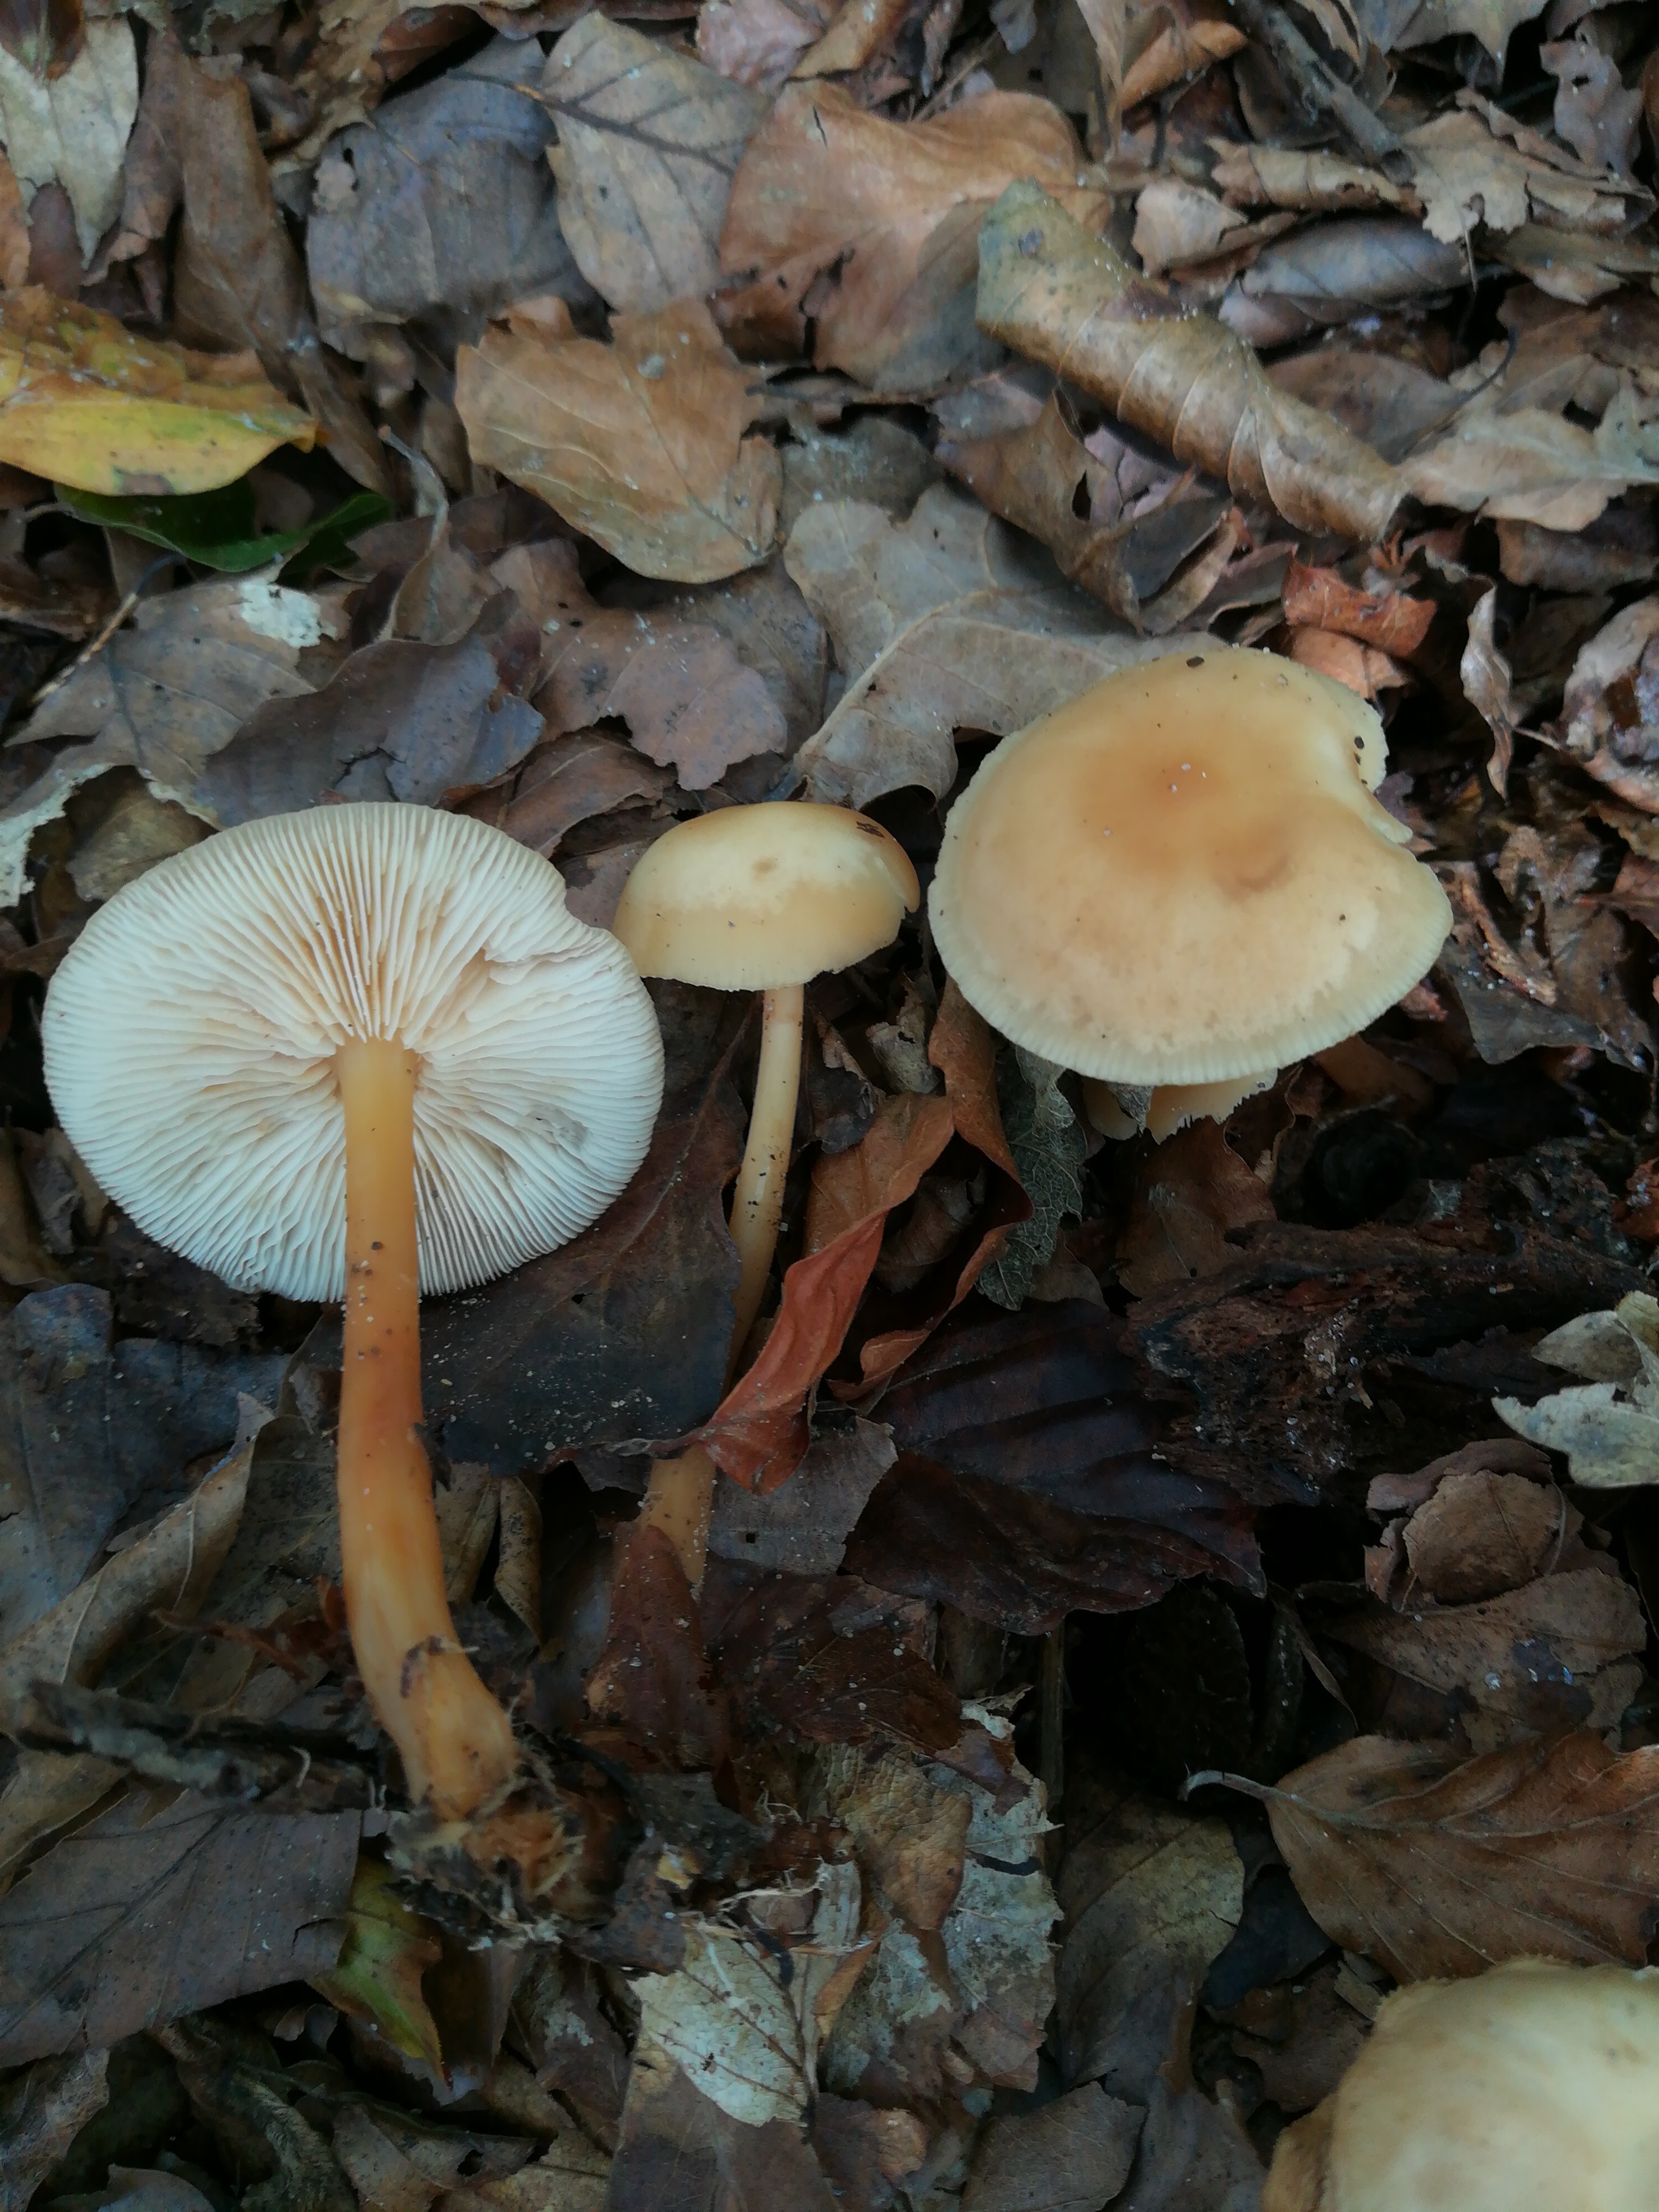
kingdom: Fungi
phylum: Basidiomycota
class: Agaricomycetes
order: Agaricales
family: Omphalotaceae
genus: Gymnopus
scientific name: Gymnopus dryophilus
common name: løv-fladhat
